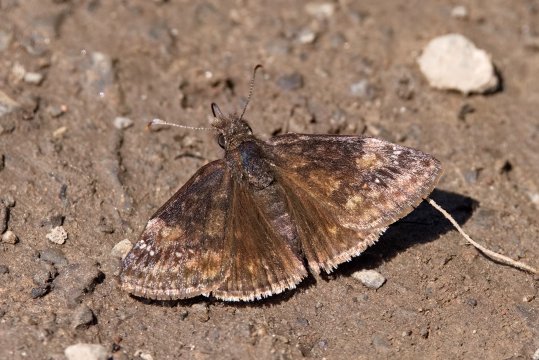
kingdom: Animalia
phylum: Arthropoda
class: Insecta
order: Lepidoptera
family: Hesperiidae
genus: Gesta
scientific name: Gesta
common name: Columbine Duskywing
